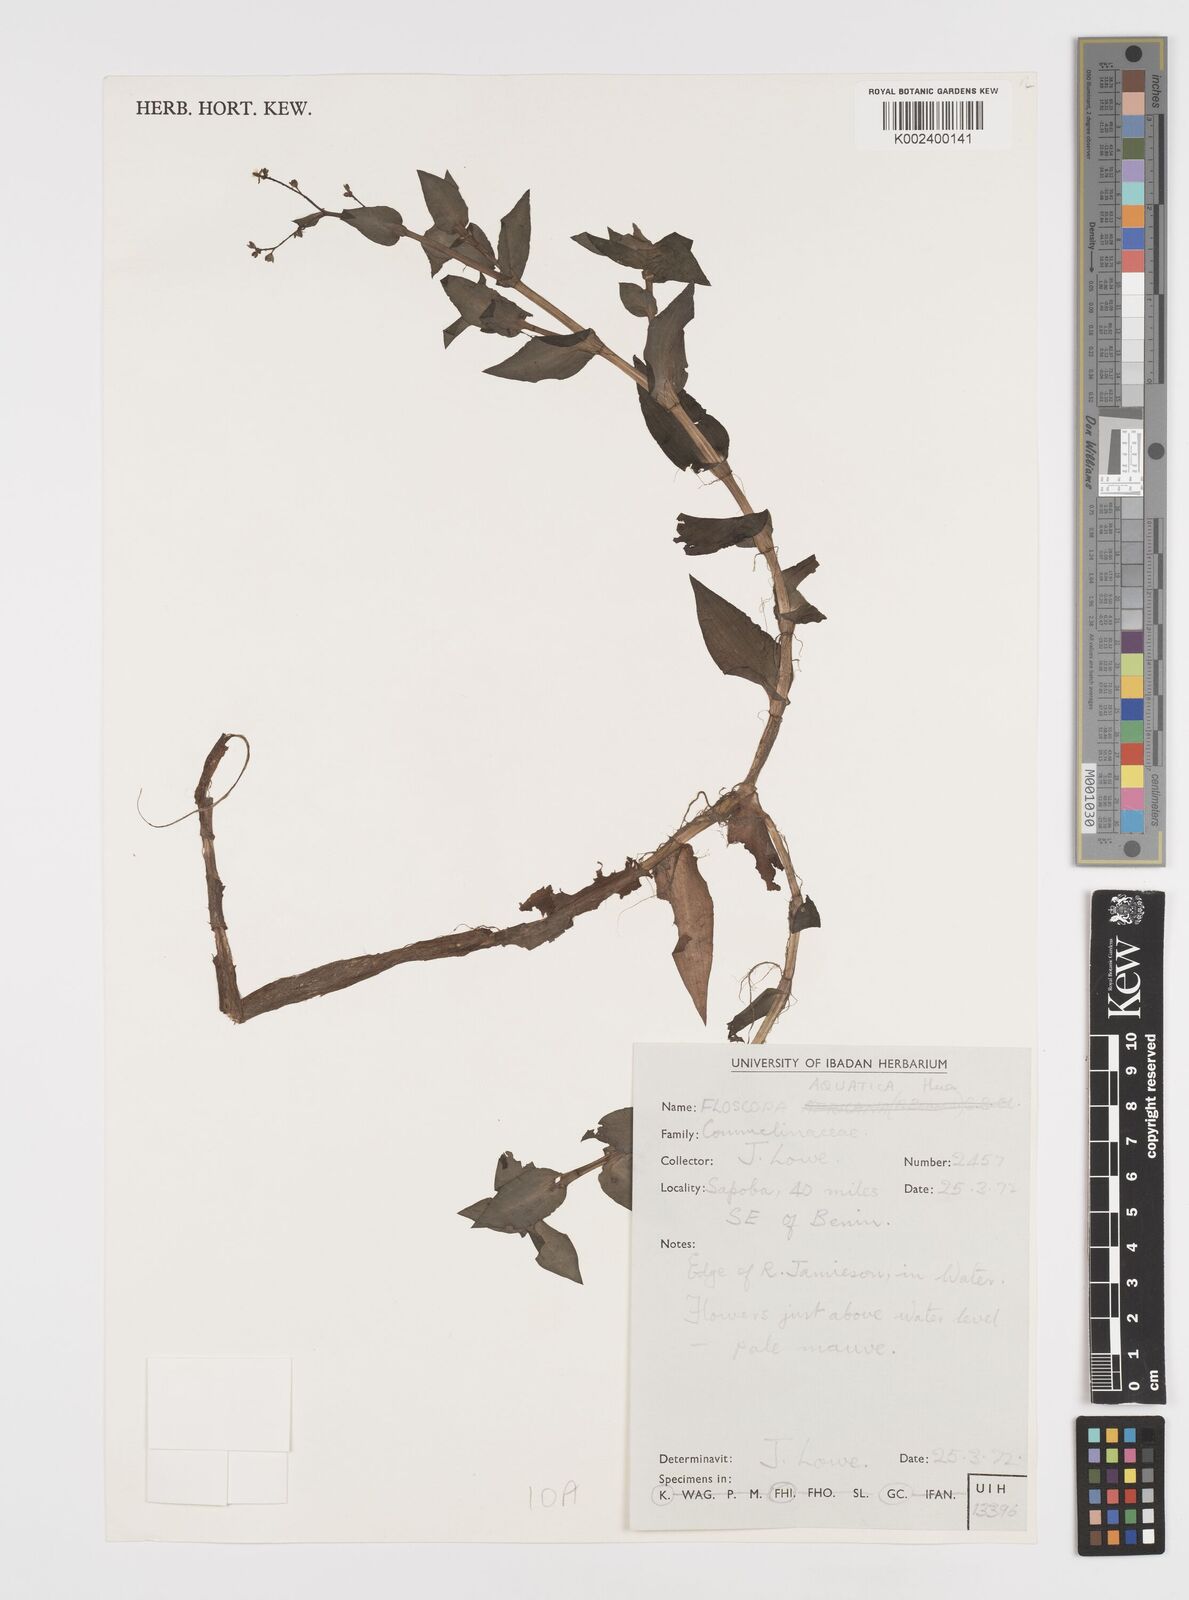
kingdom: Plantae
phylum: Tracheophyta
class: Liliopsida
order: Commelinales
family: Commelinaceae
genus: Floscopa
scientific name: Floscopa aquatica
